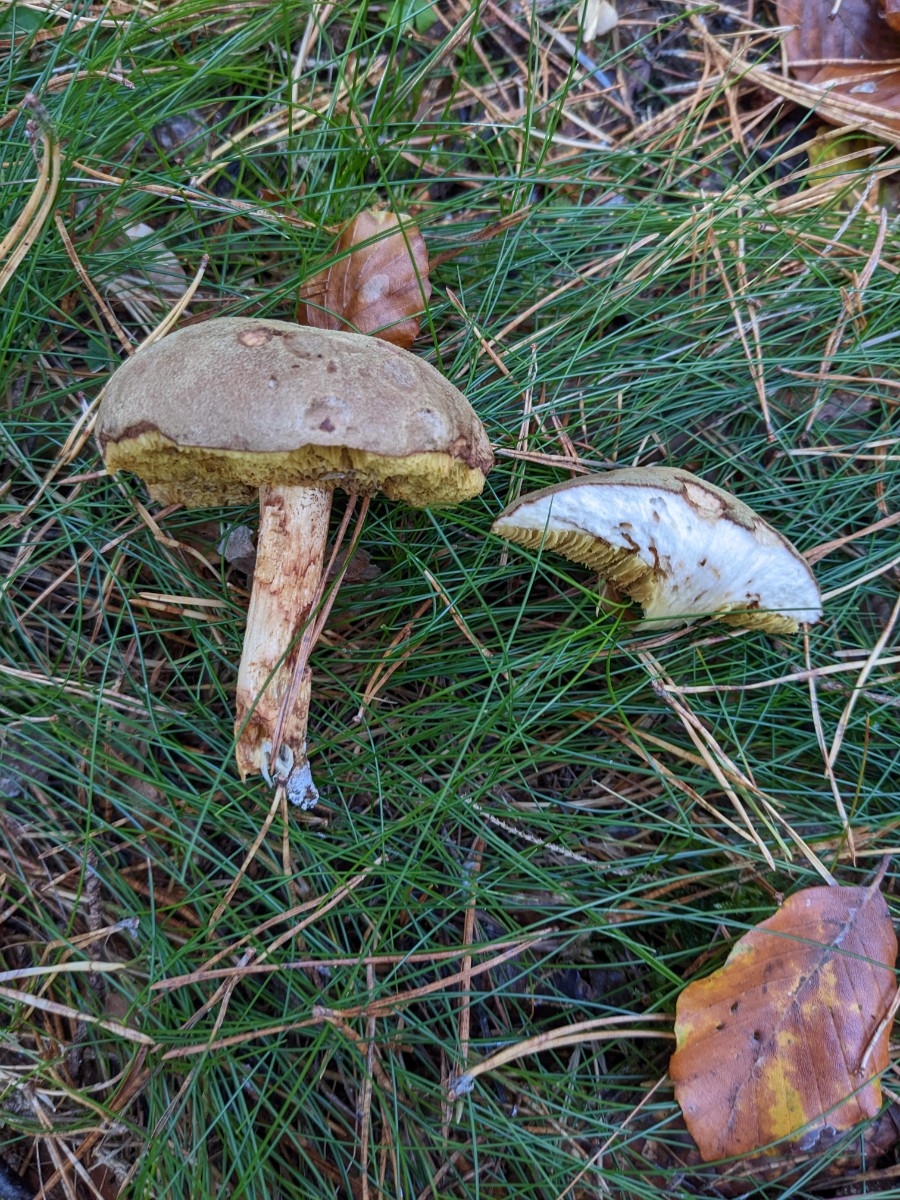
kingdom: Fungi
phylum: Basidiomycota
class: Agaricomycetes
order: Boletales
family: Boletaceae
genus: Xerocomus
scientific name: Xerocomus ferrugineus
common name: vaskeskinds-rørhat
